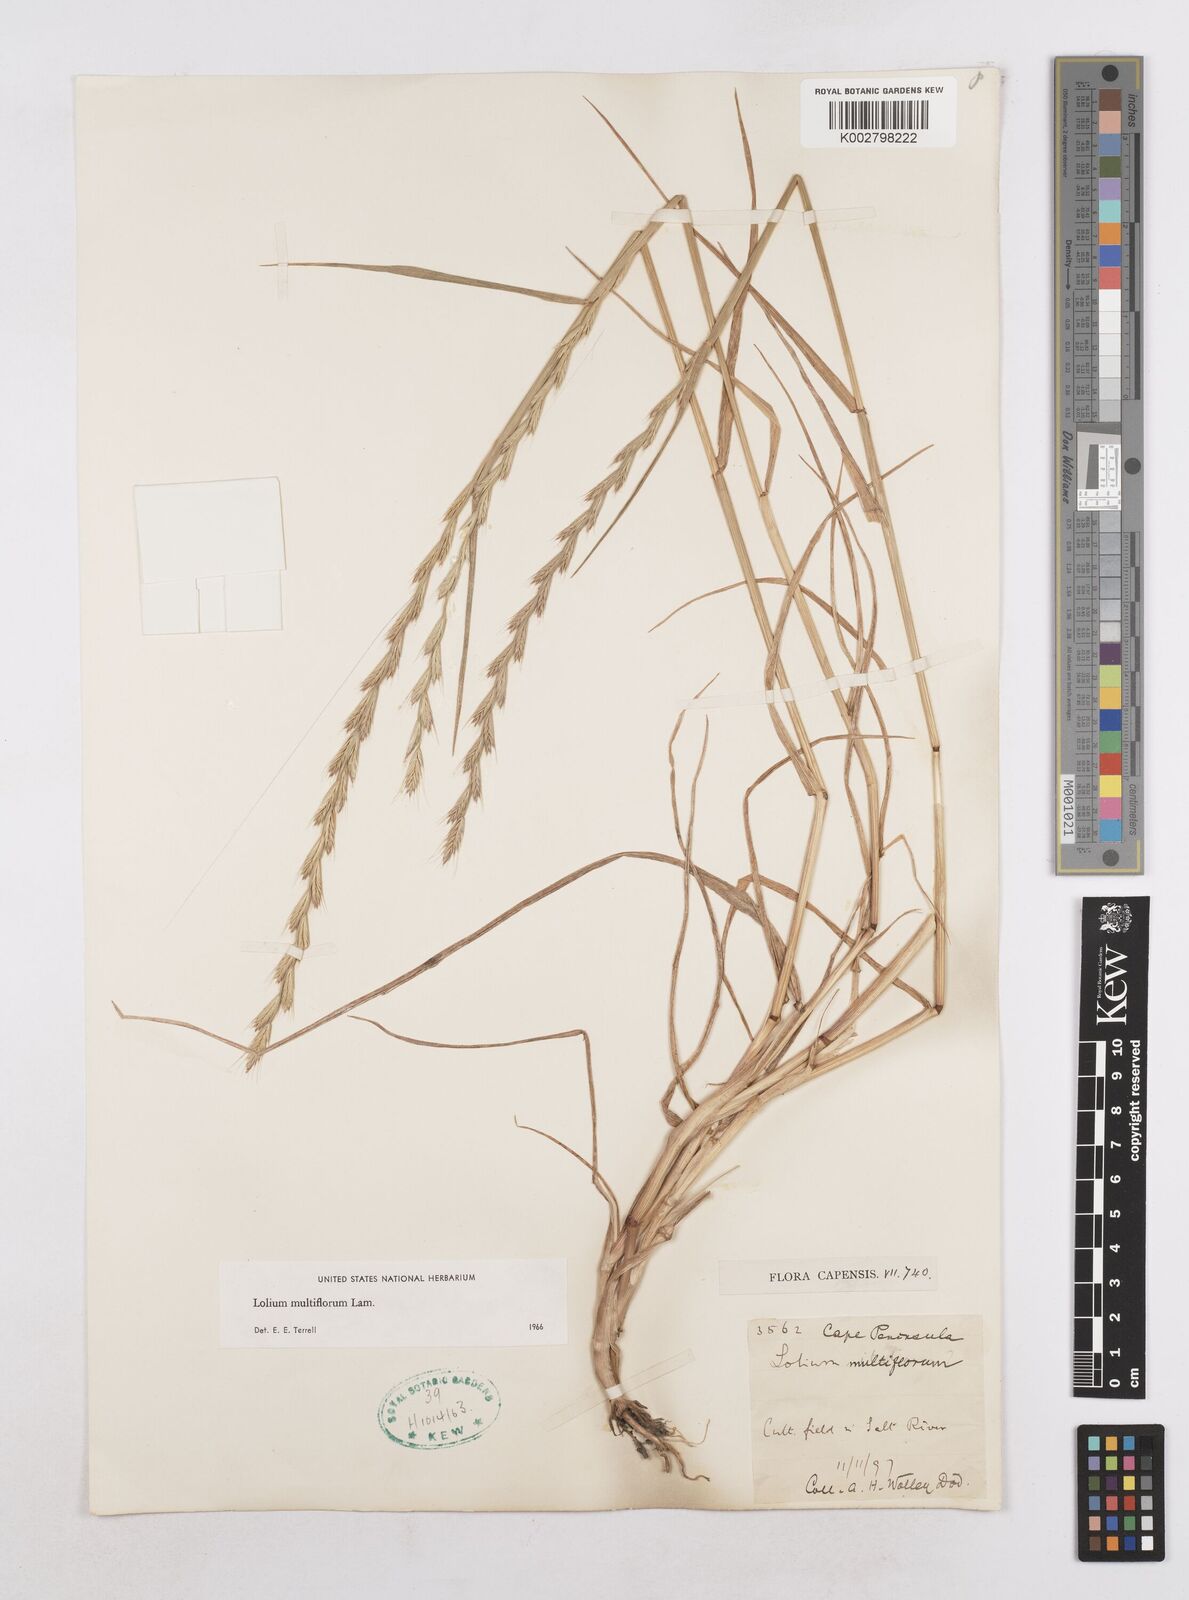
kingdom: Plantae
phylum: Tracheophyta
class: Liliopsida
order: Poales
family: Poaceae
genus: Lolium
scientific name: Lolium multiflorum
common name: Annual ryegrass
